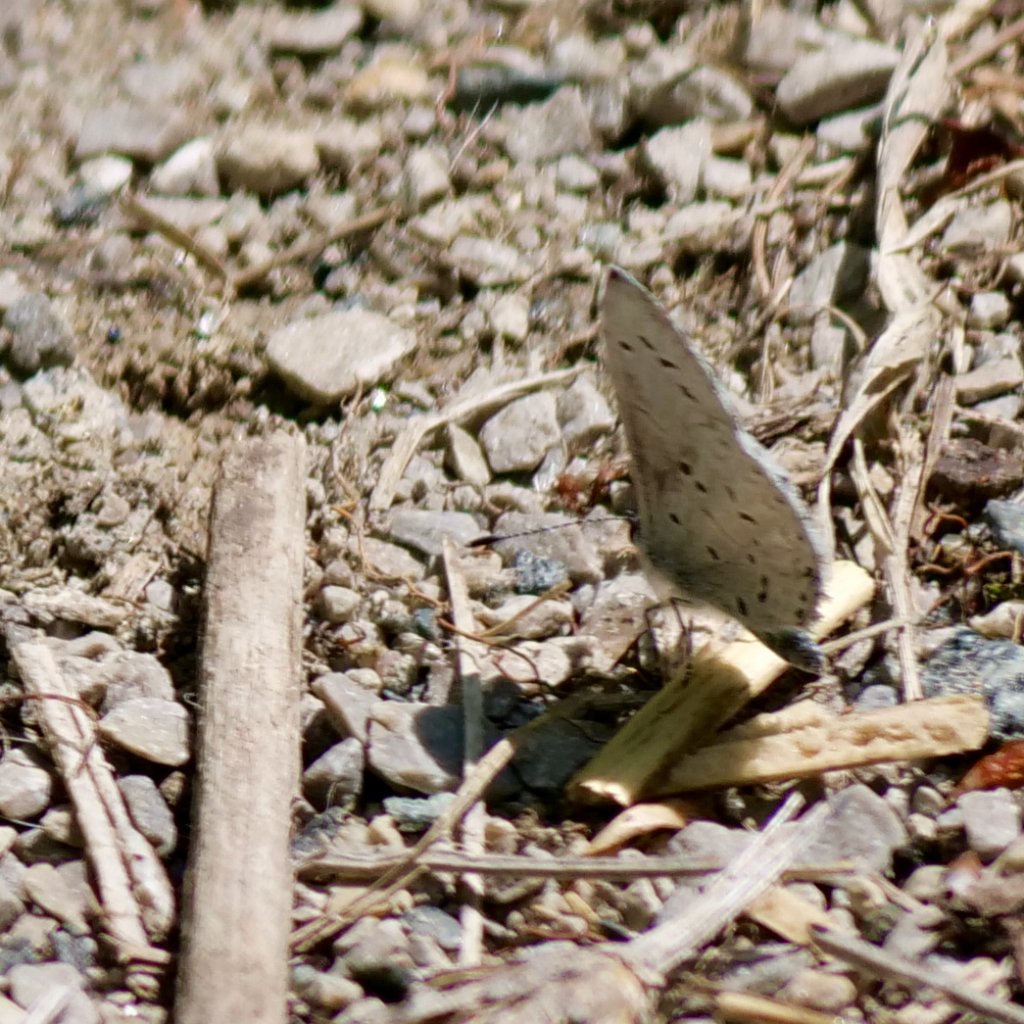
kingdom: Animalia
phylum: Arthropoda
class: Insecta
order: Lepidoptera
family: Lycaenidae
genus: Celastrina
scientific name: Celastrina lucia
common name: Northern Spring Azure
